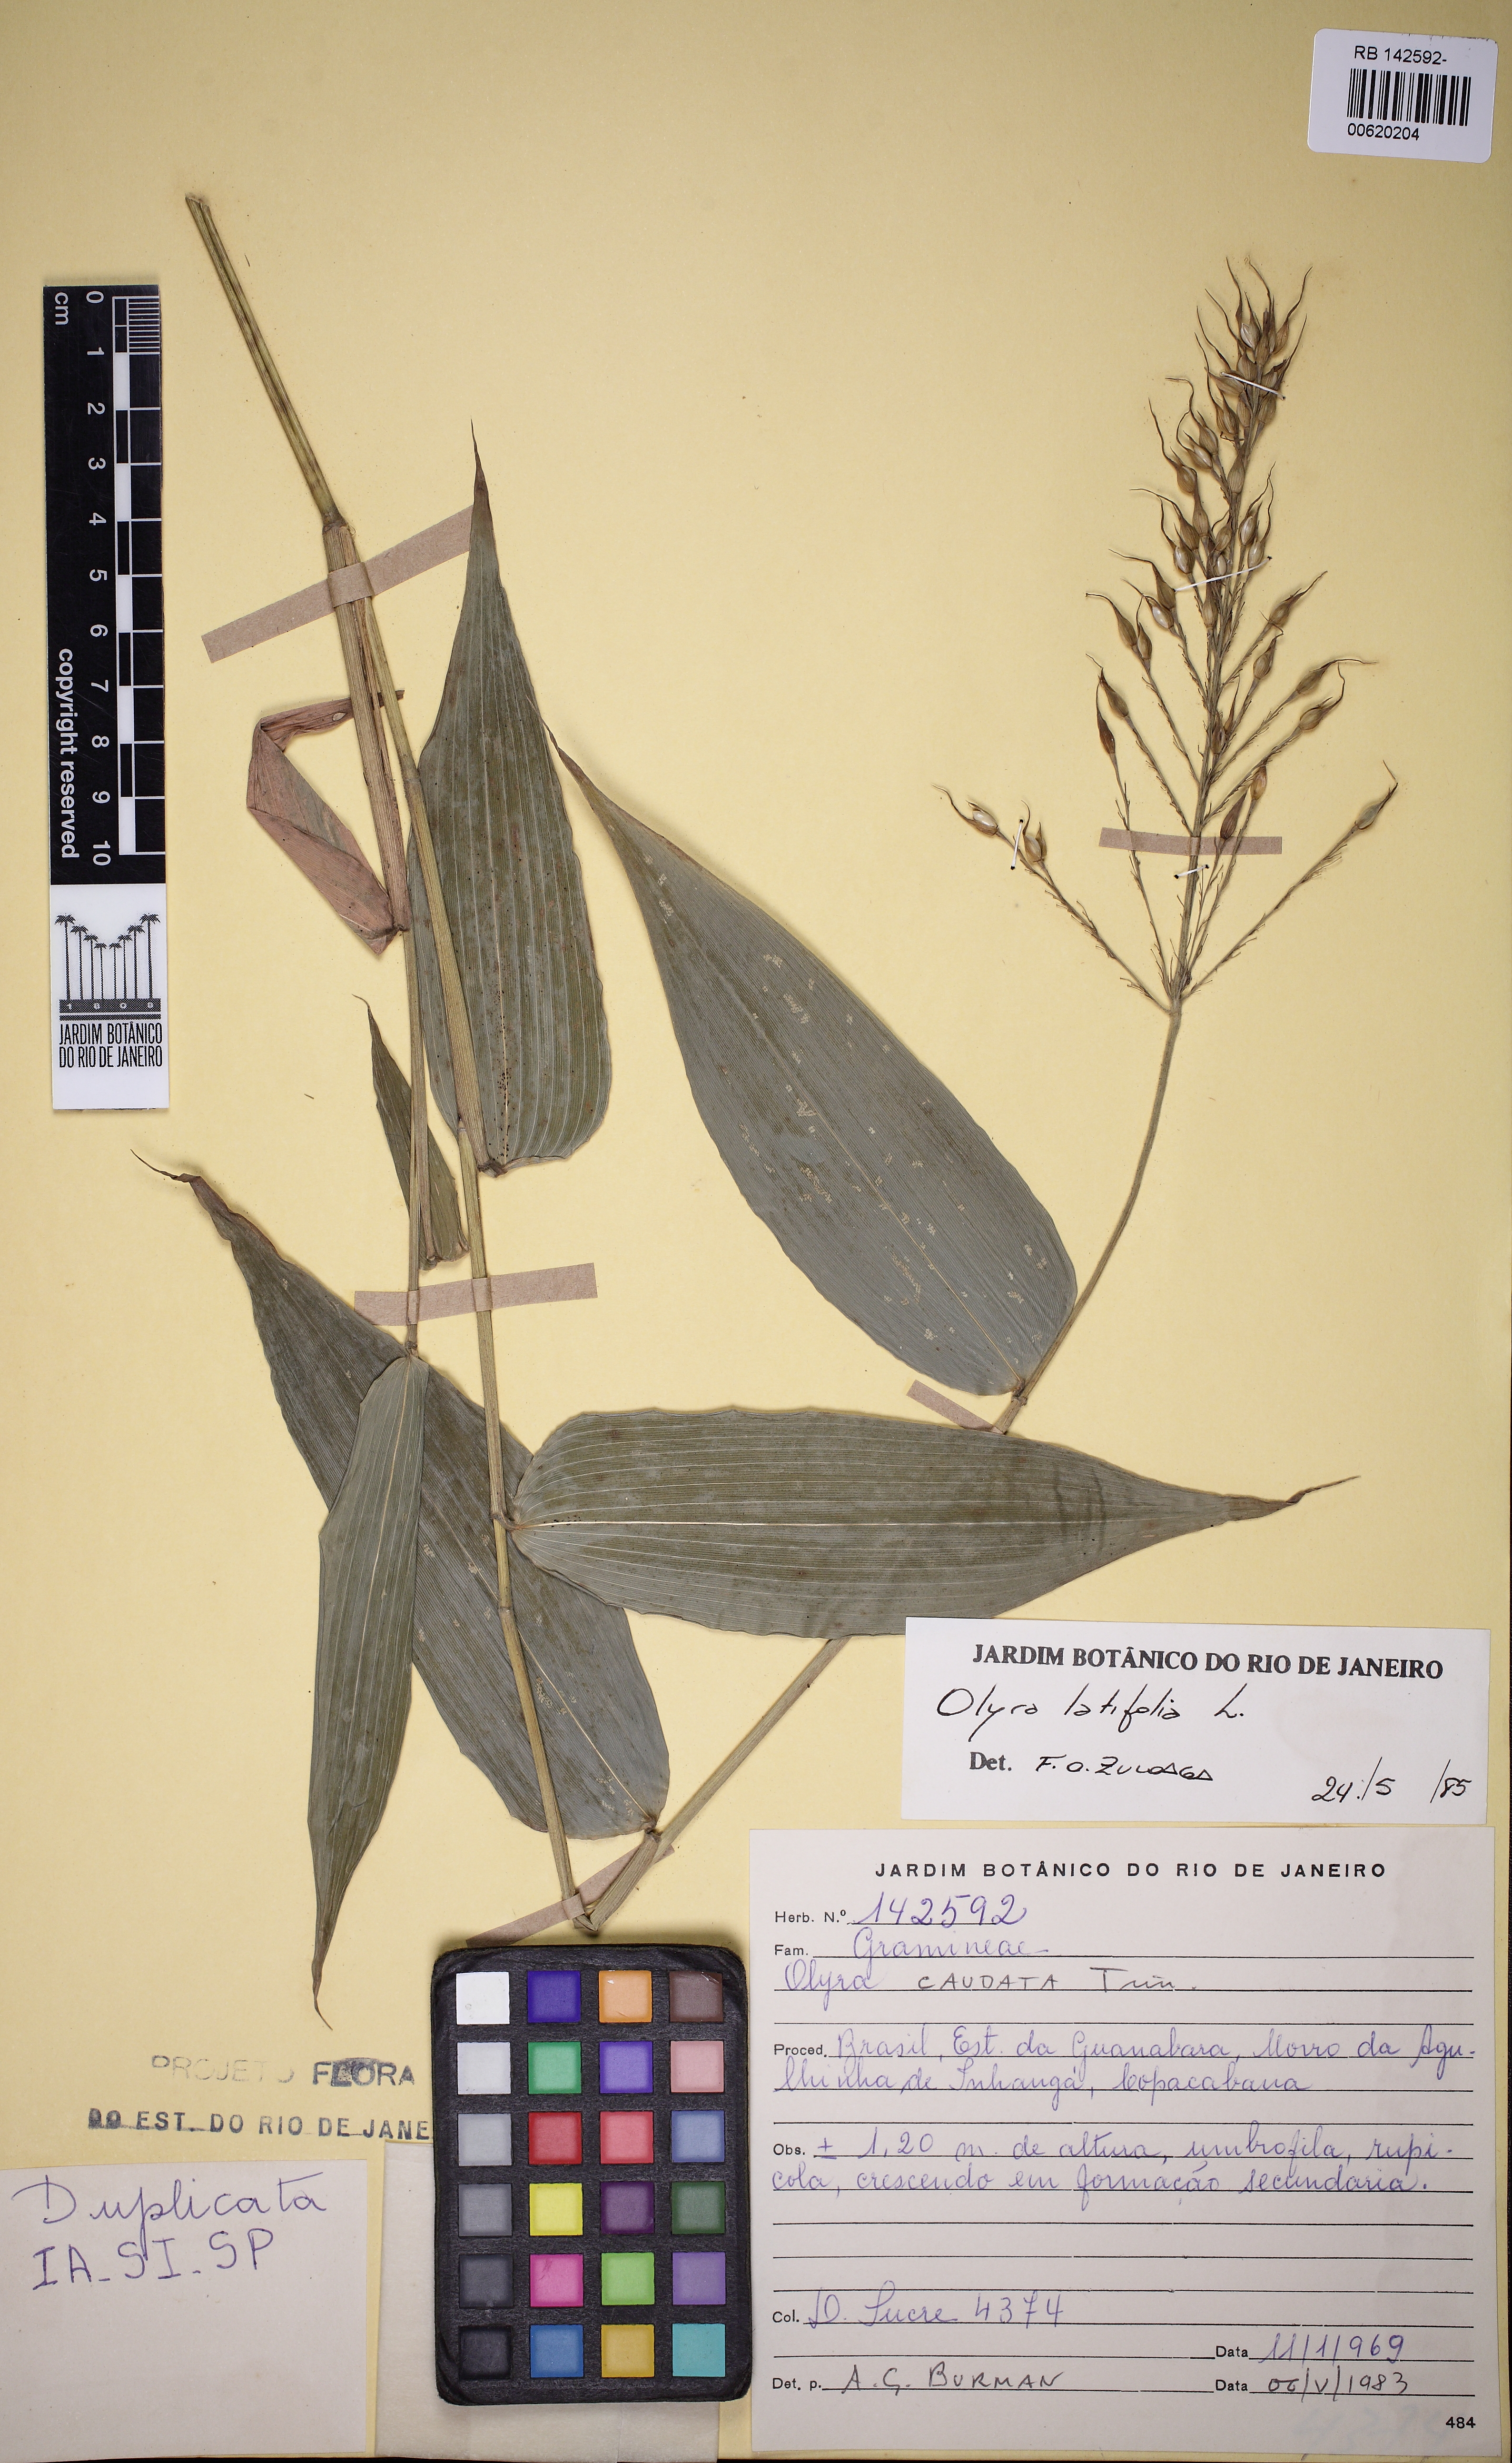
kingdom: Plantae
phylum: Tracheophyta
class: Liliopsida
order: Poales
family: Poaceae
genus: Olyra
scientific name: Olyra latifolia
